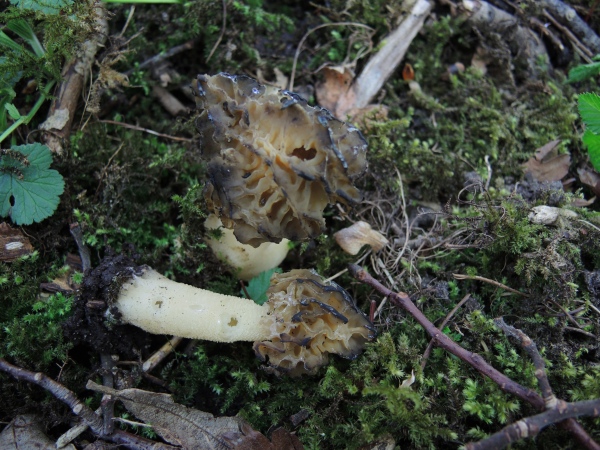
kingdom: Fungi
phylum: Ascomycota
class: Pezizomycetes
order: Pezizales
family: Morchellaceae
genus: Morchella
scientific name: Morchella semilibera
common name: hætte-morkel
